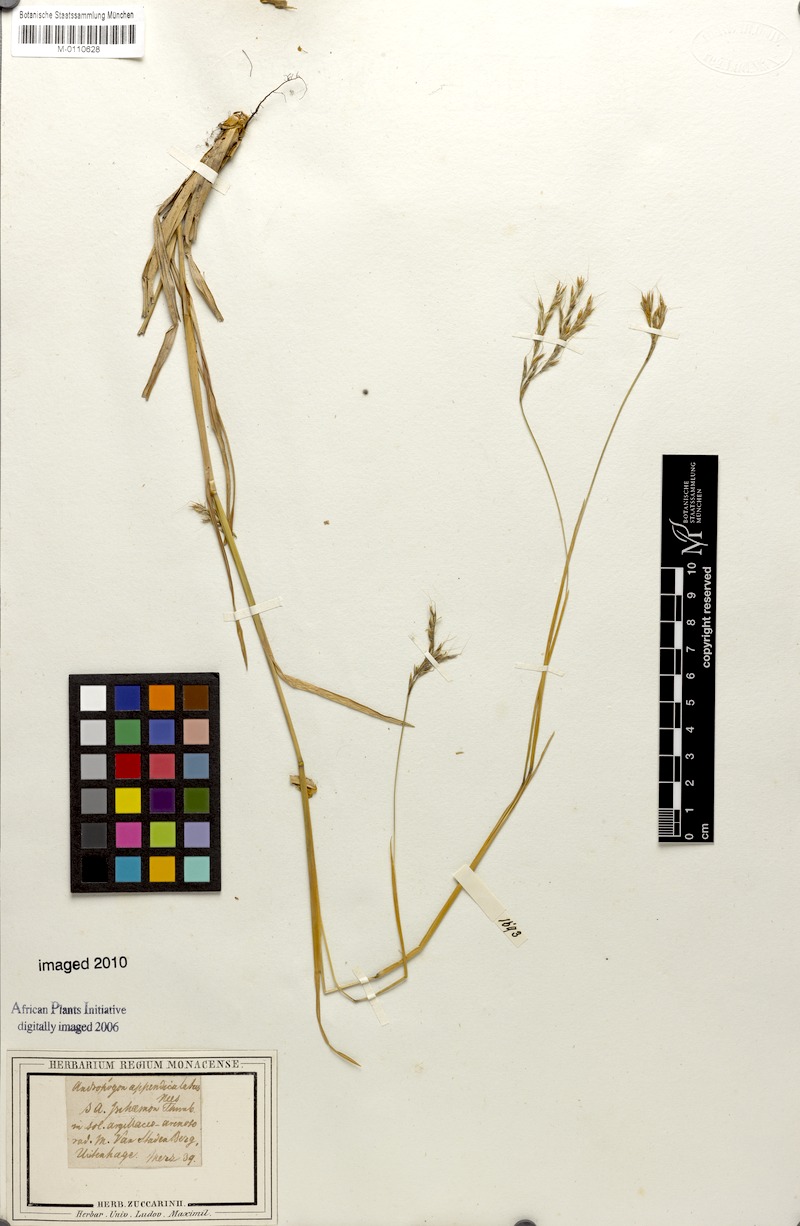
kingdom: Plantae
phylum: Tracheophyta
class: Liliopsida
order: Poales
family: Poaceae
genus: Andropogon
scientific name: Andropogon appendiculatus
